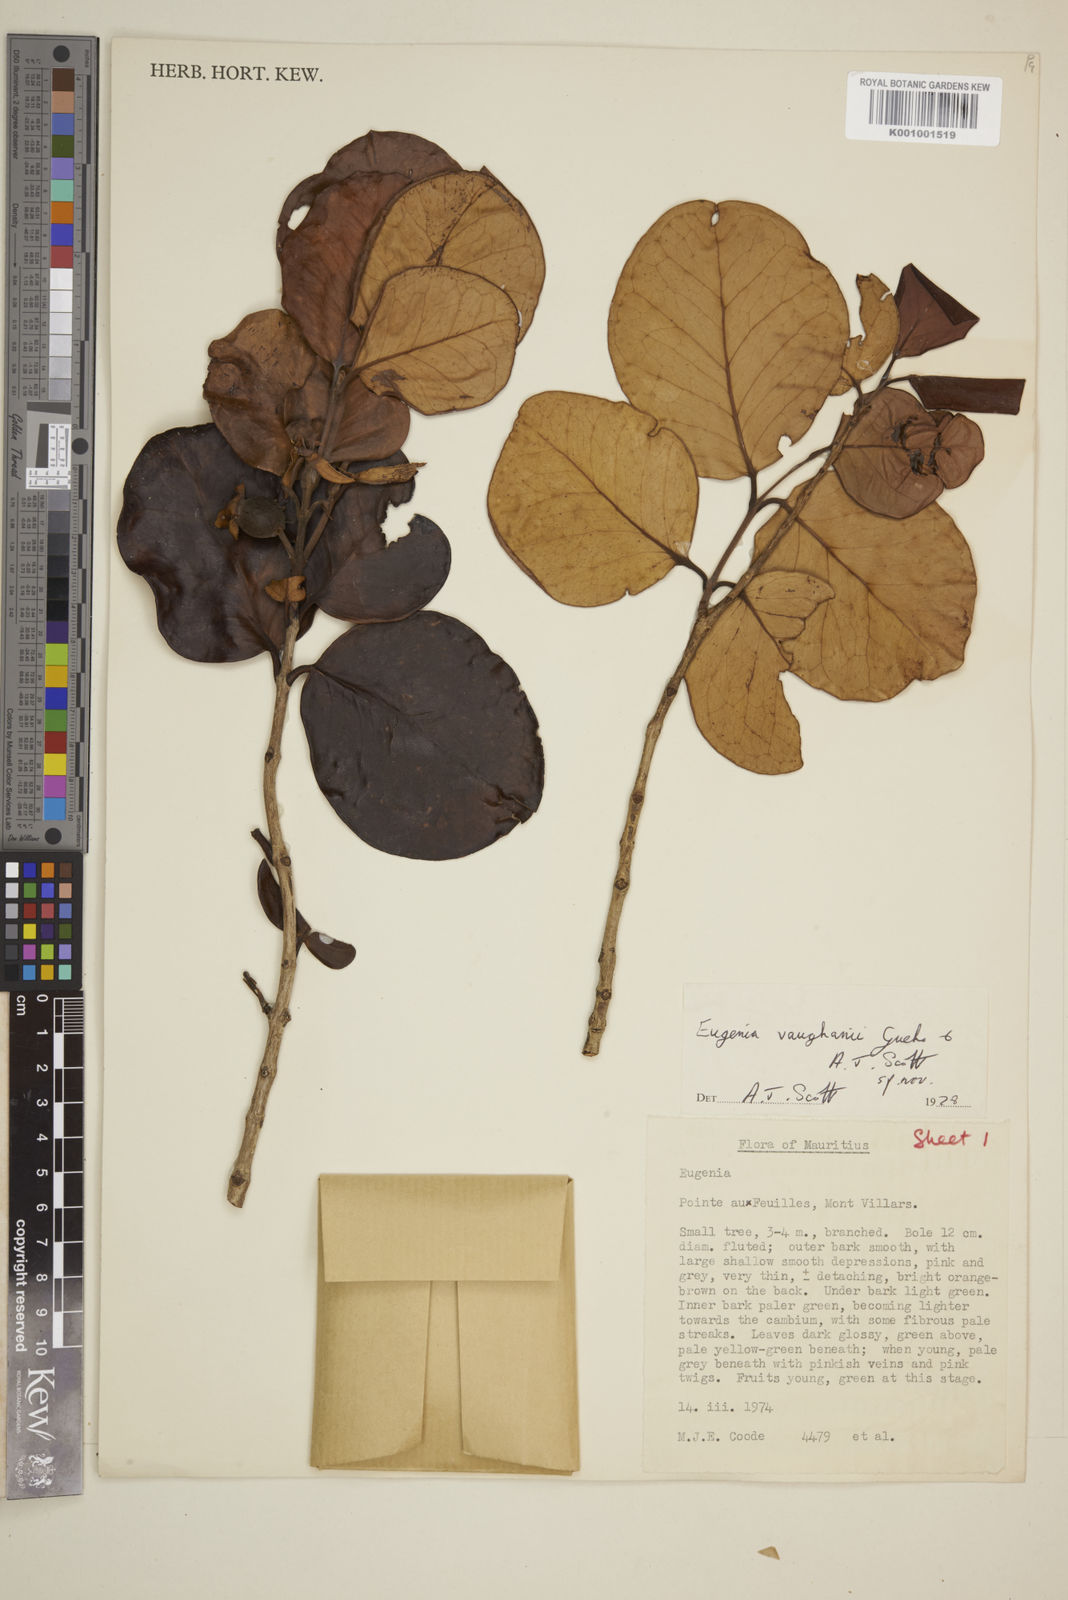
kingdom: Plantae
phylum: Tracheophyta
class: Magnoliopsida
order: Myrtales
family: Myrtaceae
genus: Eugenia
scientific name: Eugenia
